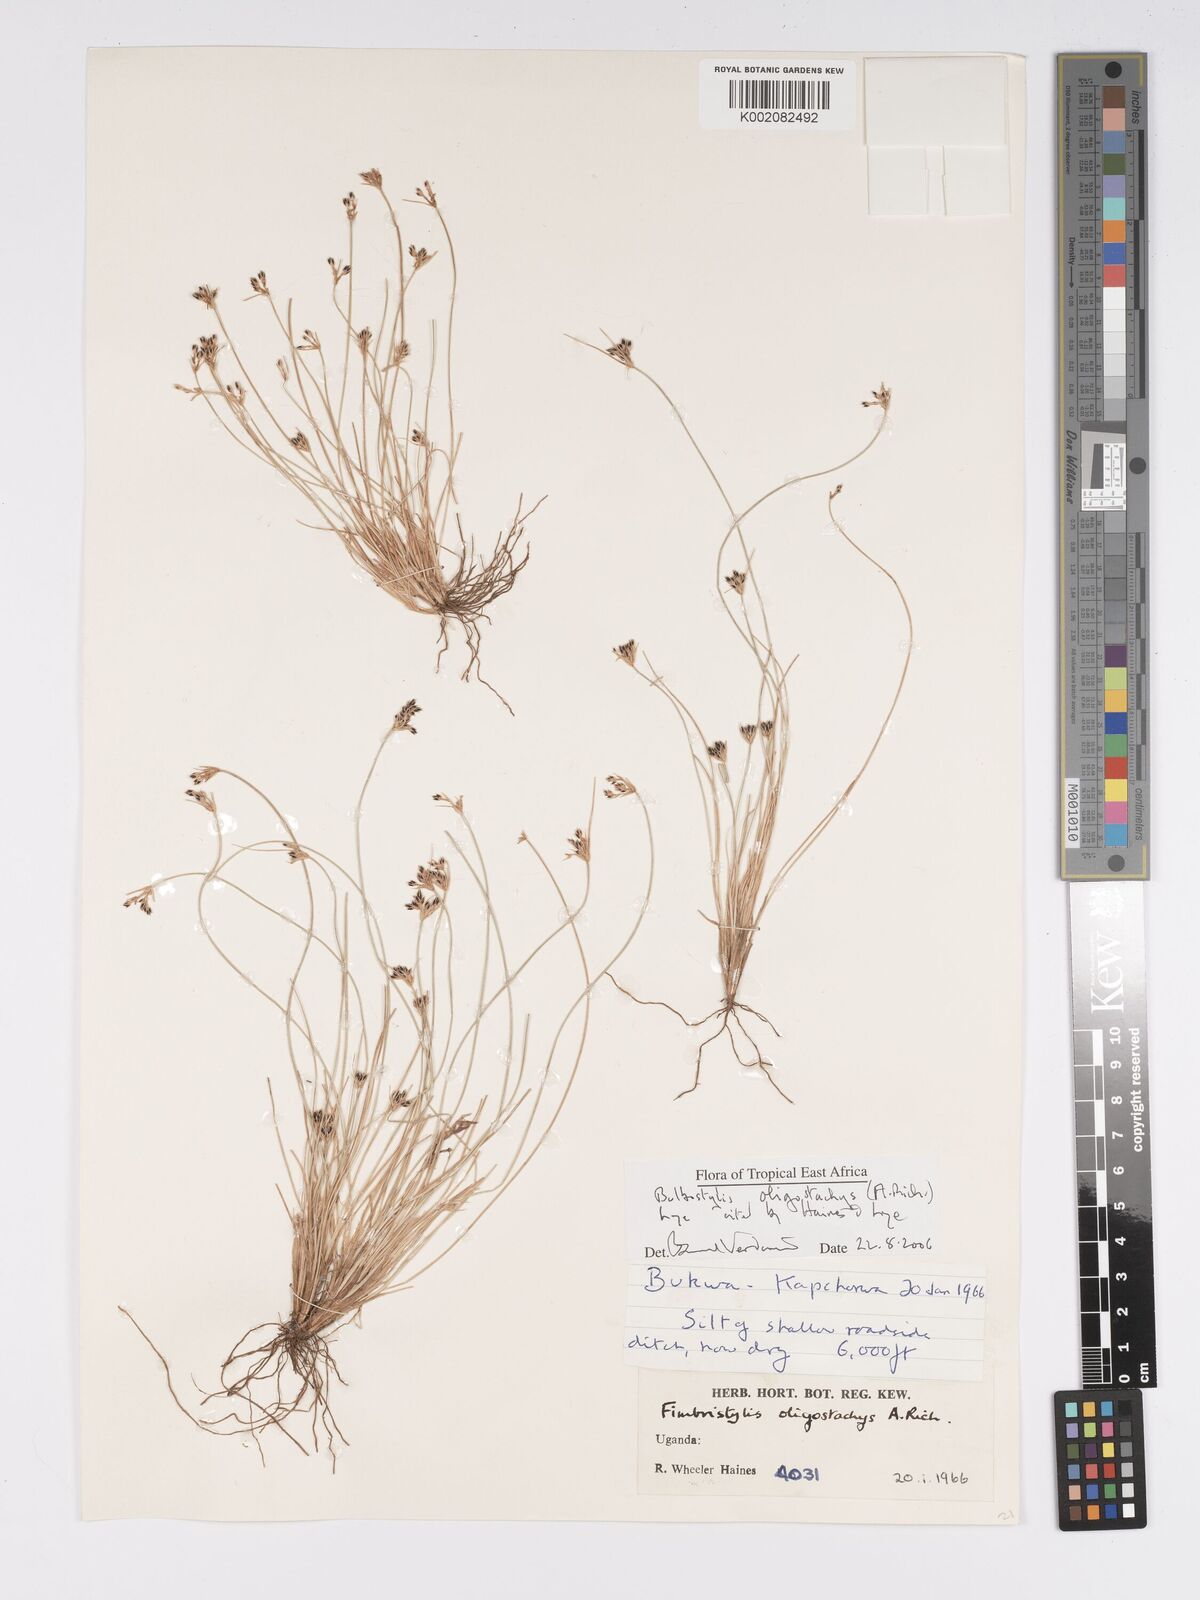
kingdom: Plantae
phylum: Tracheophyta
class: Liliopsida
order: Poales
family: Cyperaceae
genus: Bulbostylis
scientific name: Bulbostylis oligostachys
